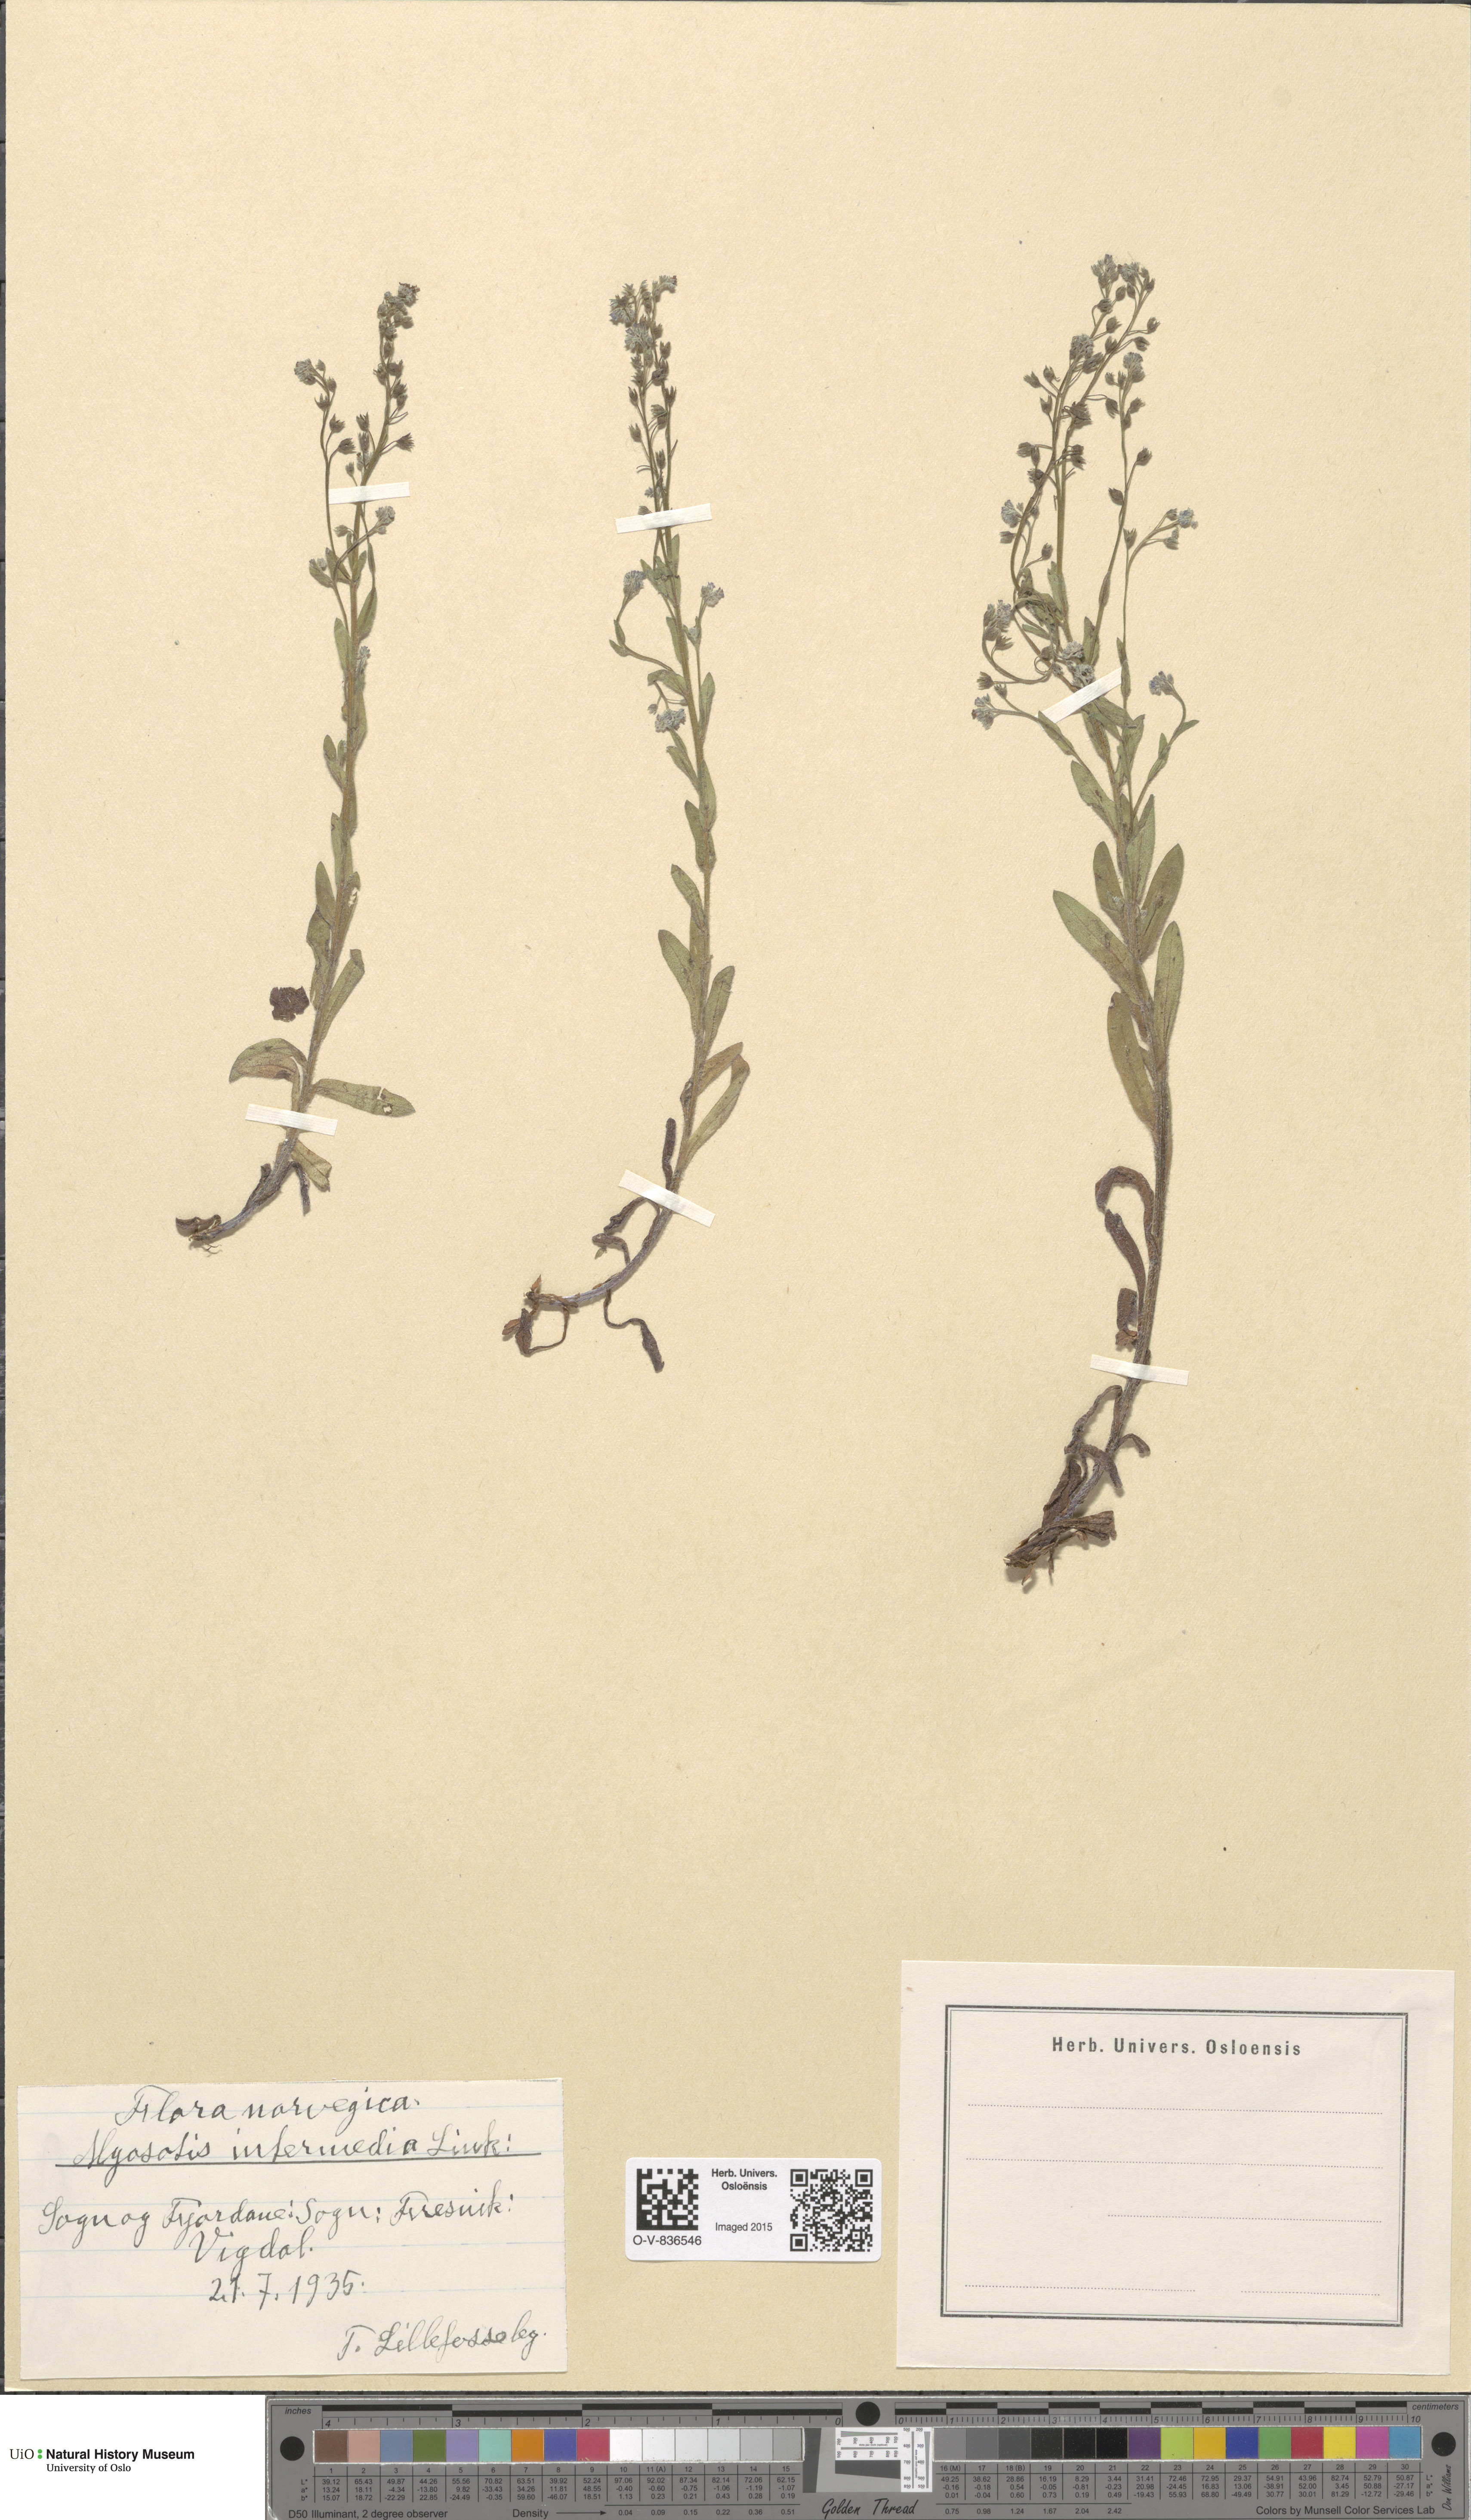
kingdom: Plantae
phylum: Tracheophyta
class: Magnoliopsida
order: Boraginales
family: Boraginaceae
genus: Myosotis
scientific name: Myosotis arvensis
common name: Field forget-me-not
